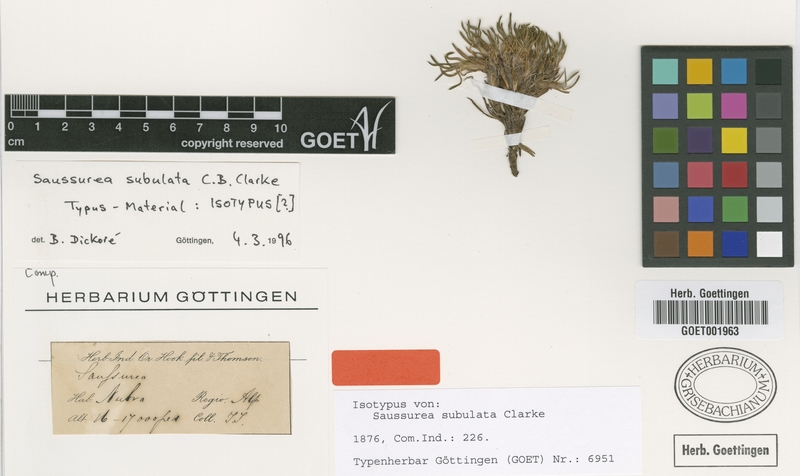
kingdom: Plantae
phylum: Tracheophyta
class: Magnoliopsida
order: Asterales
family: Asteraceae
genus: Saussurea
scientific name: Saussurea subulata
